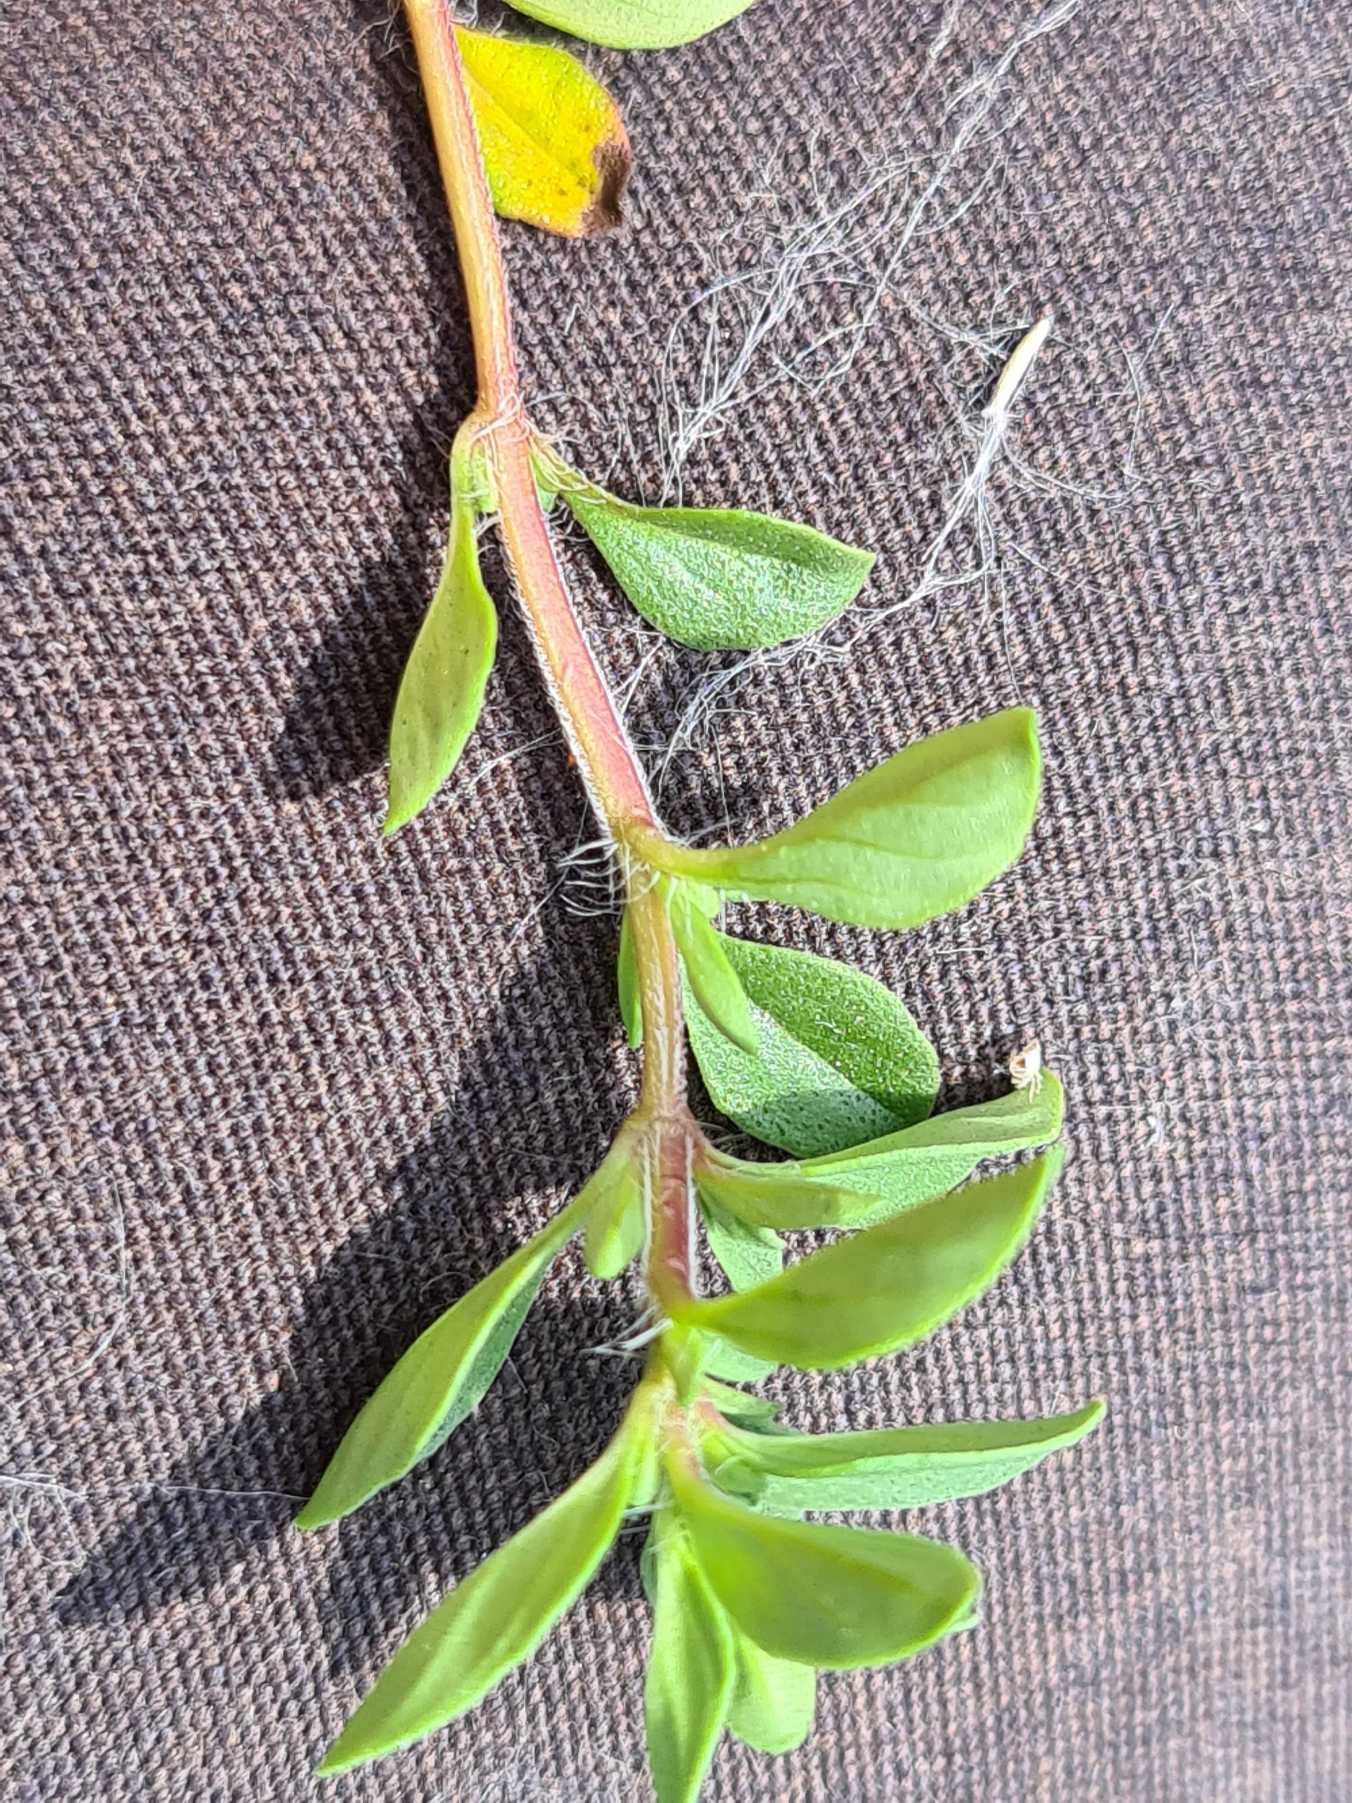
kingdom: Plantae
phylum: Tracheophyta
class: Magnoliopsida
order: Lamiales
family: Lamiaceae
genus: Thymus
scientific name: Thymus pulegioides
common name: Bredbladet timian
